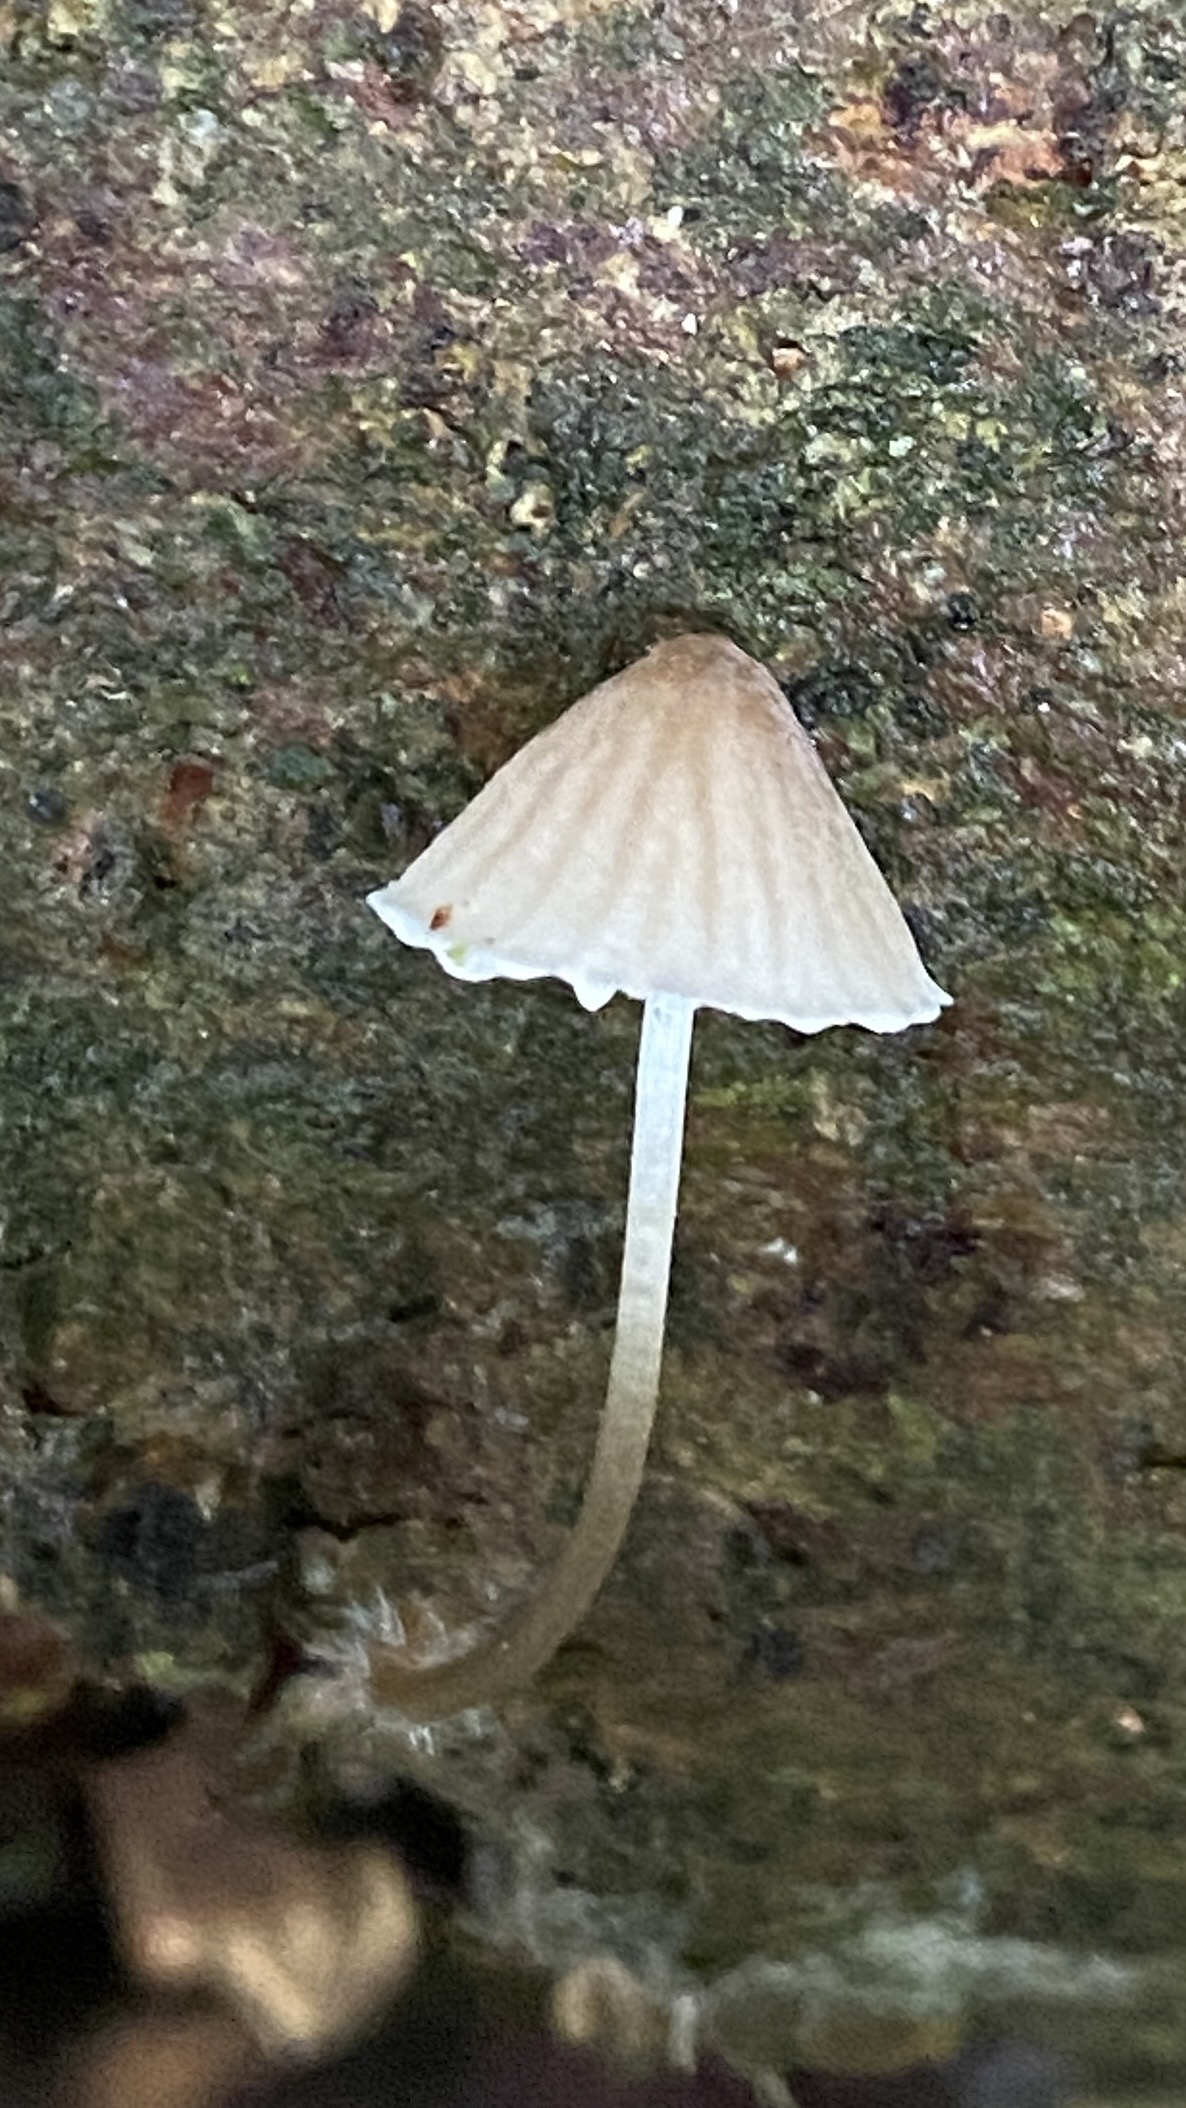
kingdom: Fungi
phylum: Basidiomycota
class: Agaricomycetes
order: Agaricales
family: Mycenaceae
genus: Mycena
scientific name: Mycena metata
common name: rødlig huesvamp
